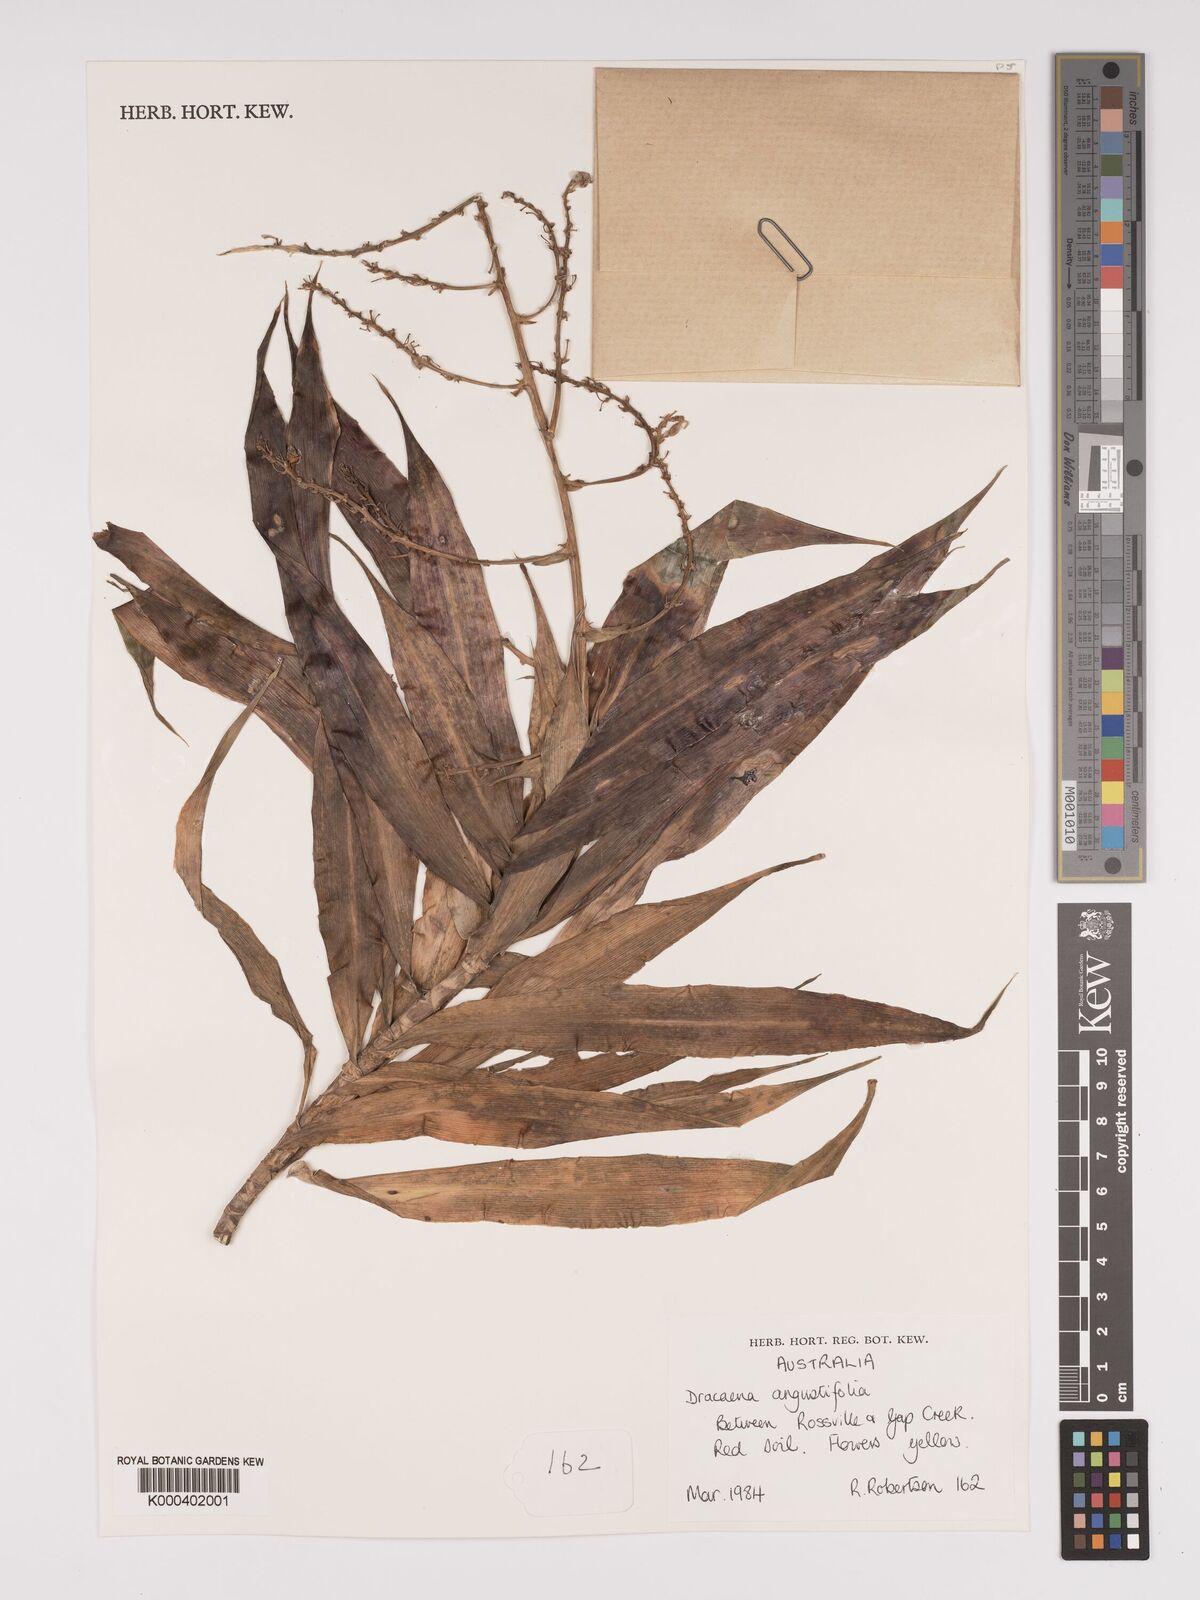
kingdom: Plantae
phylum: Tracheophyta
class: Liliopsida
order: Asparagales
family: Asparagaceae
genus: Dracaena
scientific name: Dracaena angustifolia
